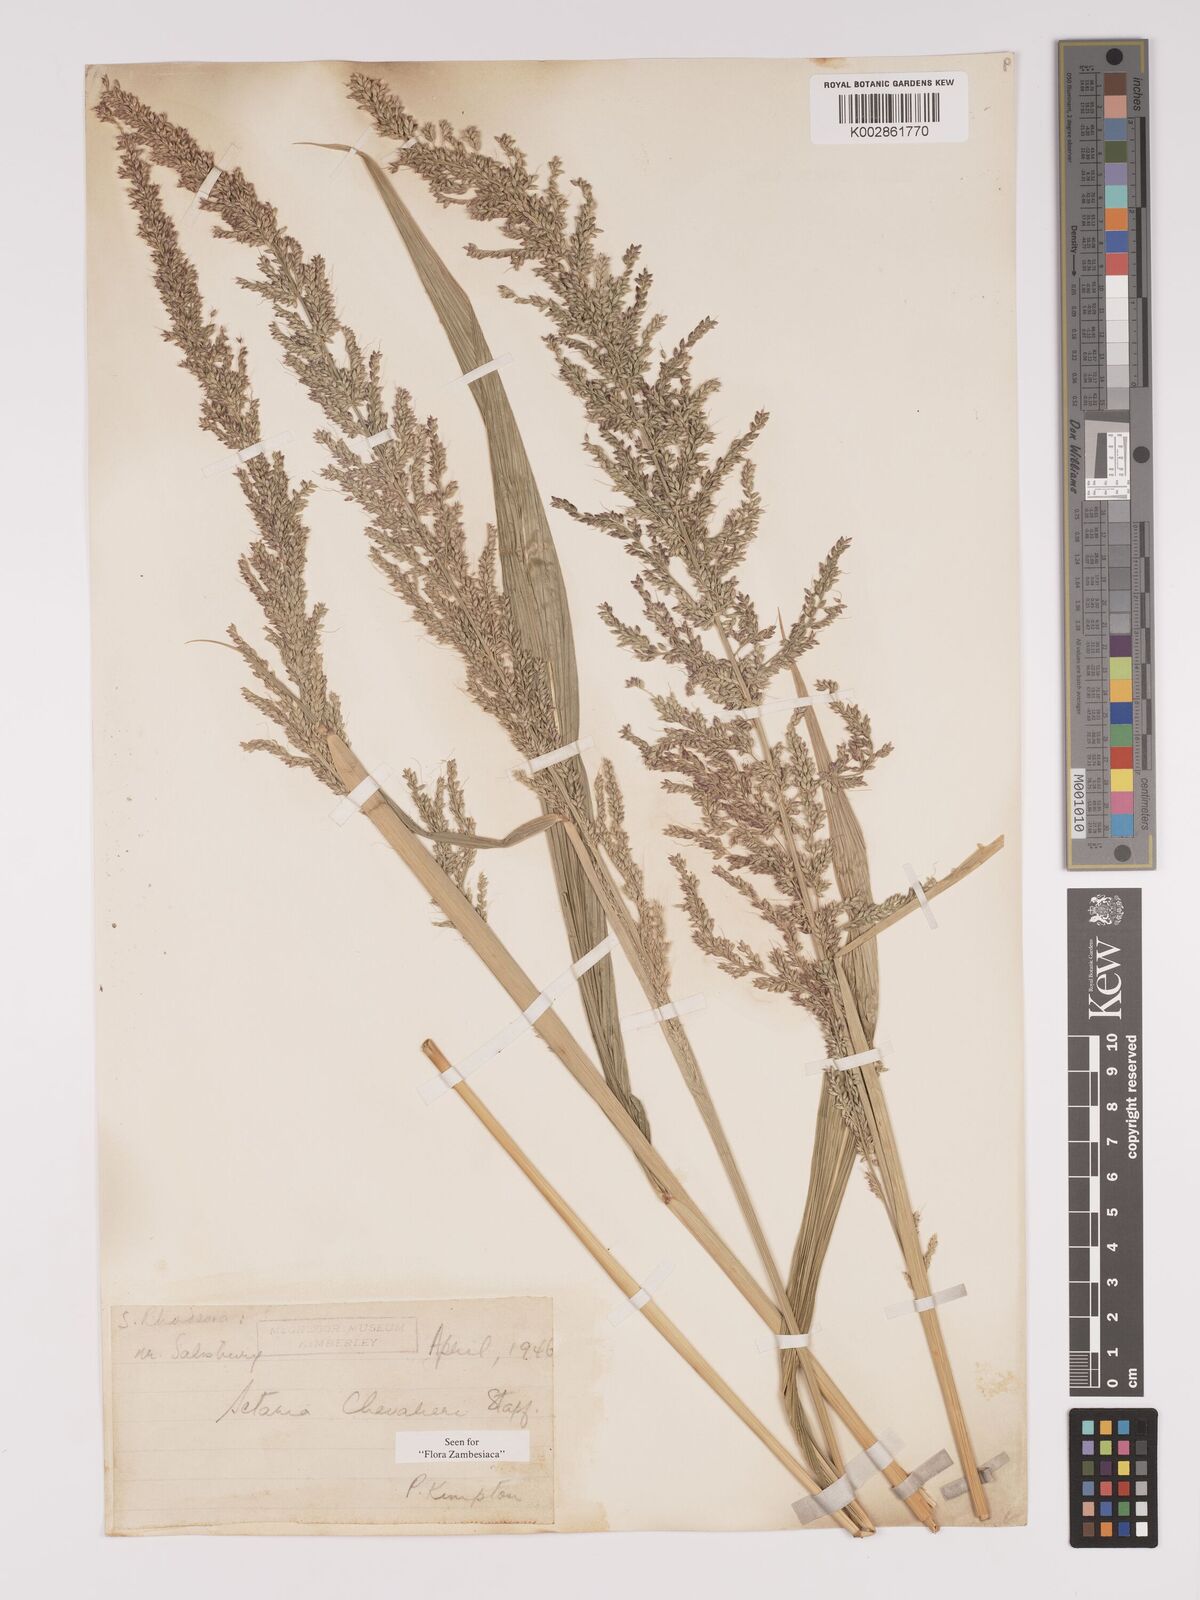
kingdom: Plantae
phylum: Tracheophyta
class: Liliopsida
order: Poales
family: Poaceae
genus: Setaria
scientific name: Setaria megaphylla
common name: Bigleaf bristlegrass
